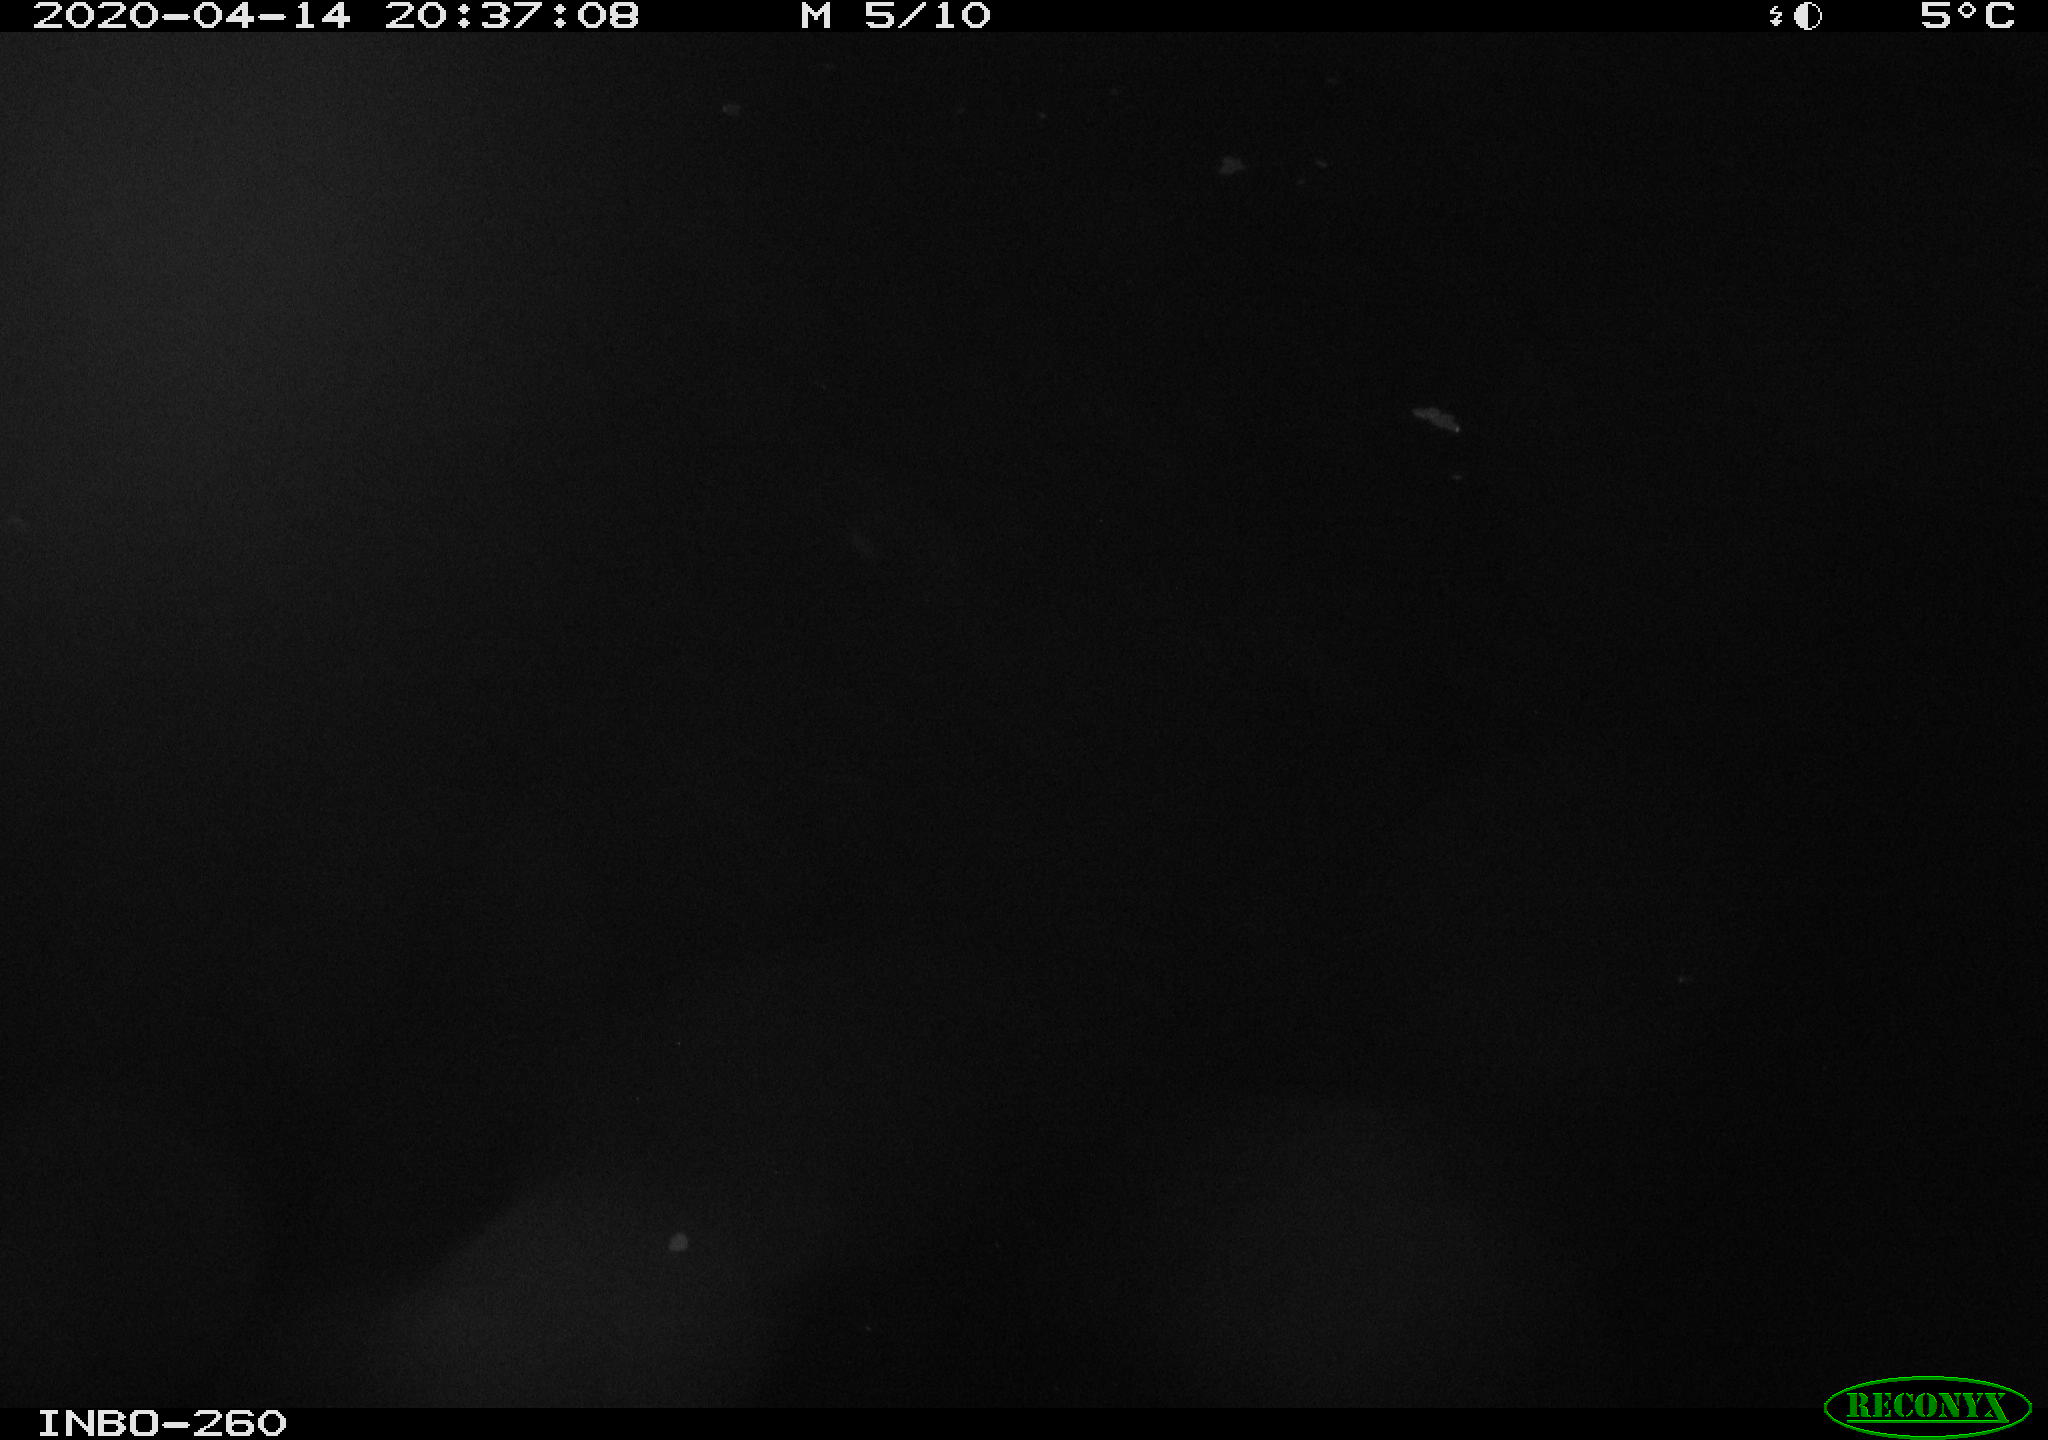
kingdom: Animalia
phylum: Chordata
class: Aves
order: Anseriformes
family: Anatidae
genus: Anas
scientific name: Anas platyrhynchos
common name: Mallard
